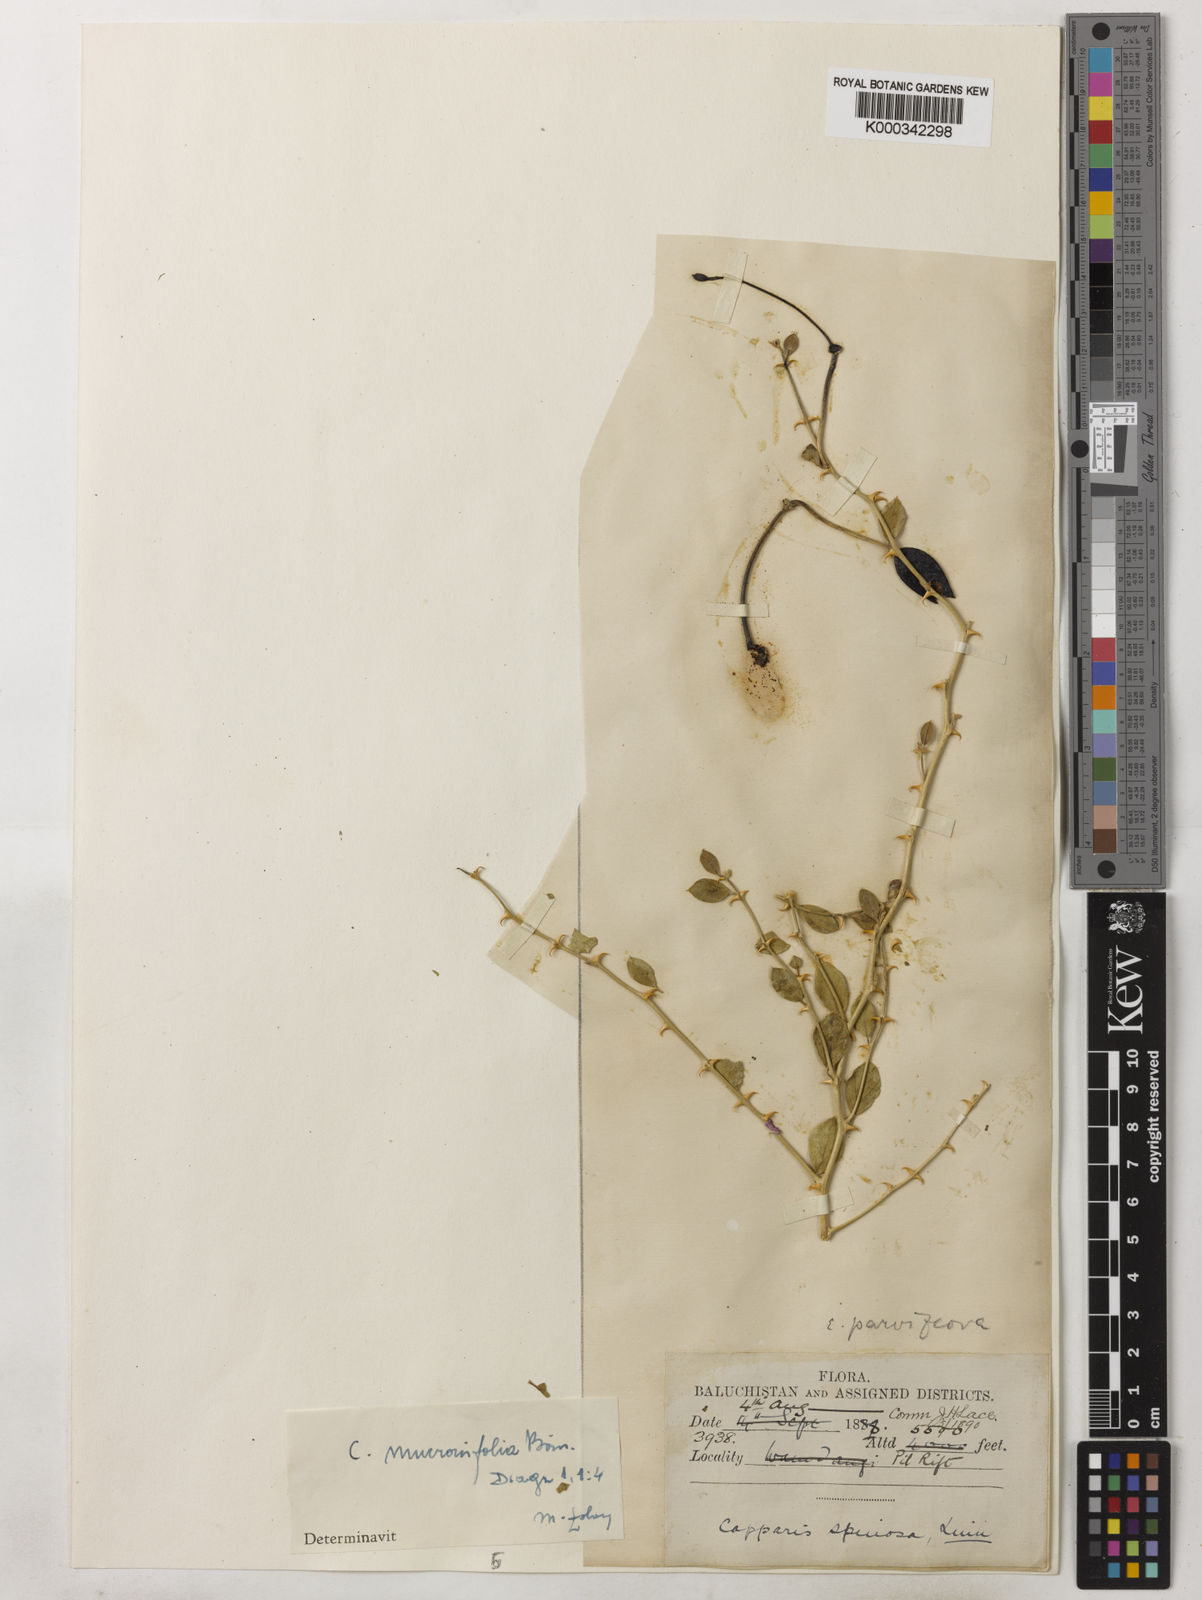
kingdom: Plantae
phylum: Tracheophyta
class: Magnoliopsida
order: Brassicales
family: Capparaceae
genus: Capparis
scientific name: Capparis spinosa
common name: Caper
